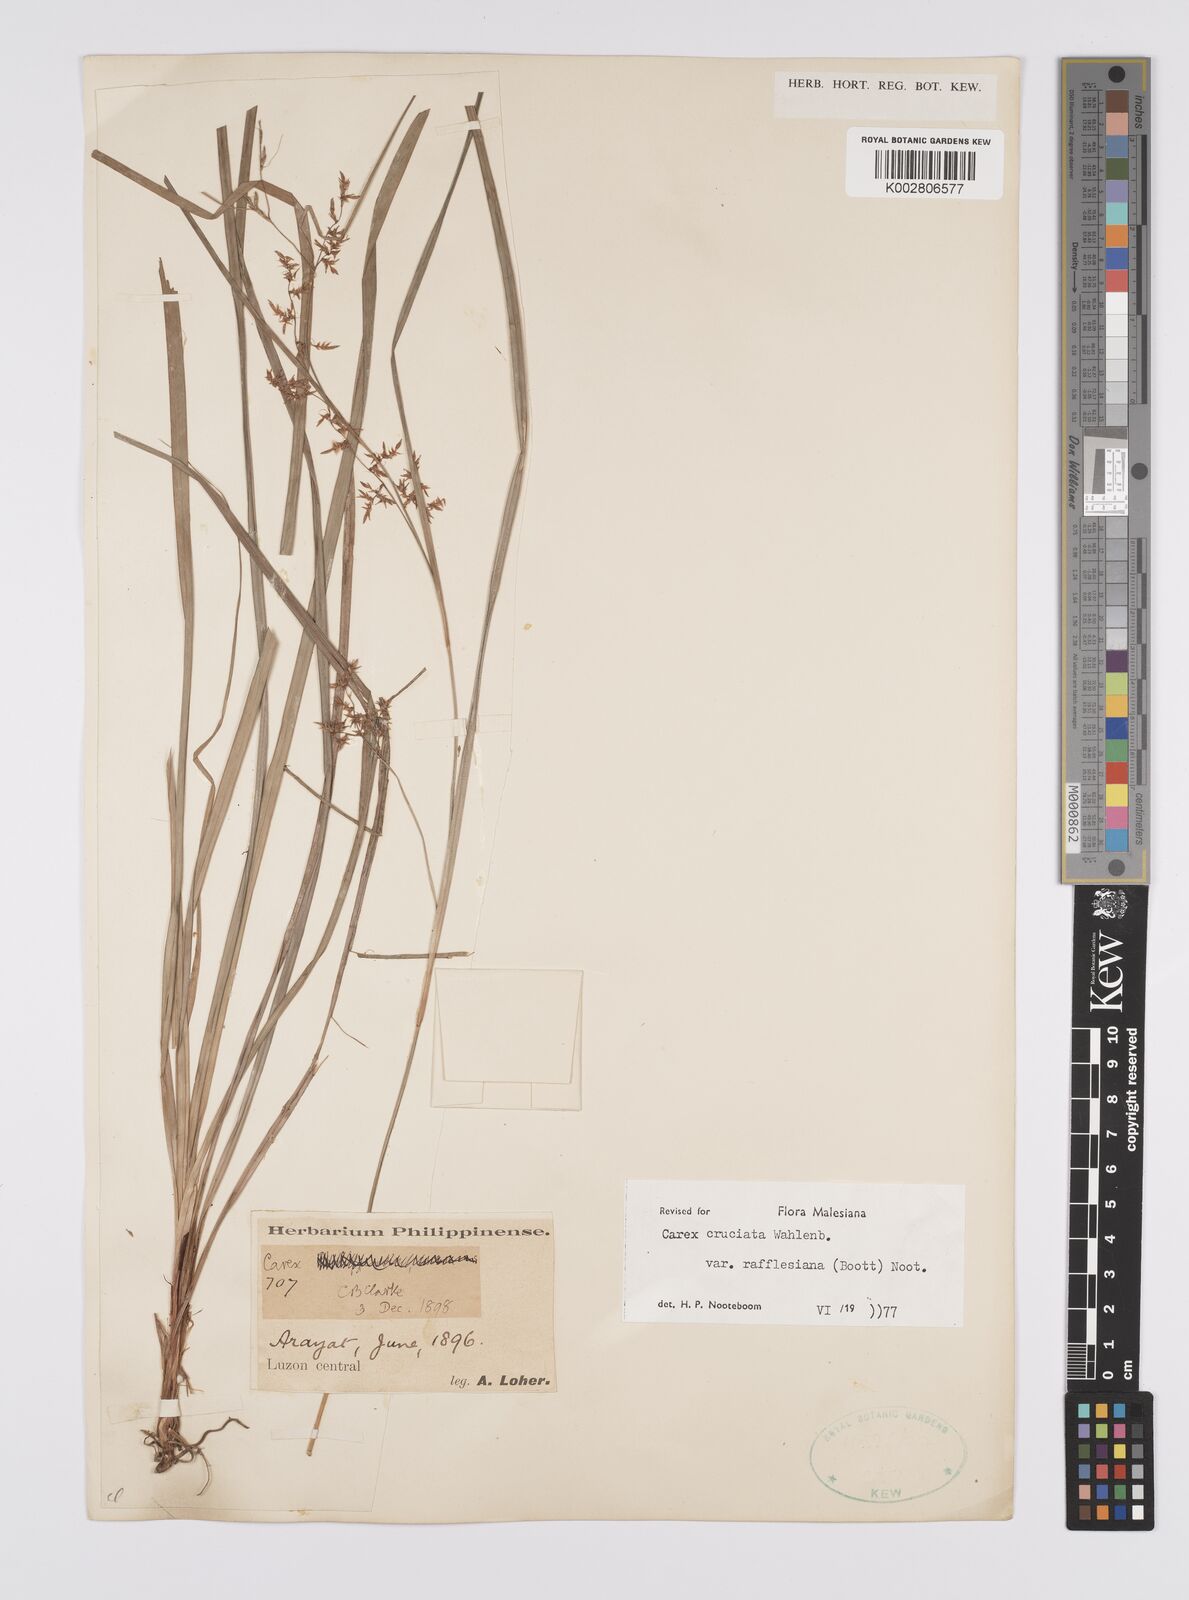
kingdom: Plantae
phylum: Tracheophyta
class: Liliopsida
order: Poales
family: Cyperaceae
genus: Carex
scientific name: Carex rafflesiana
